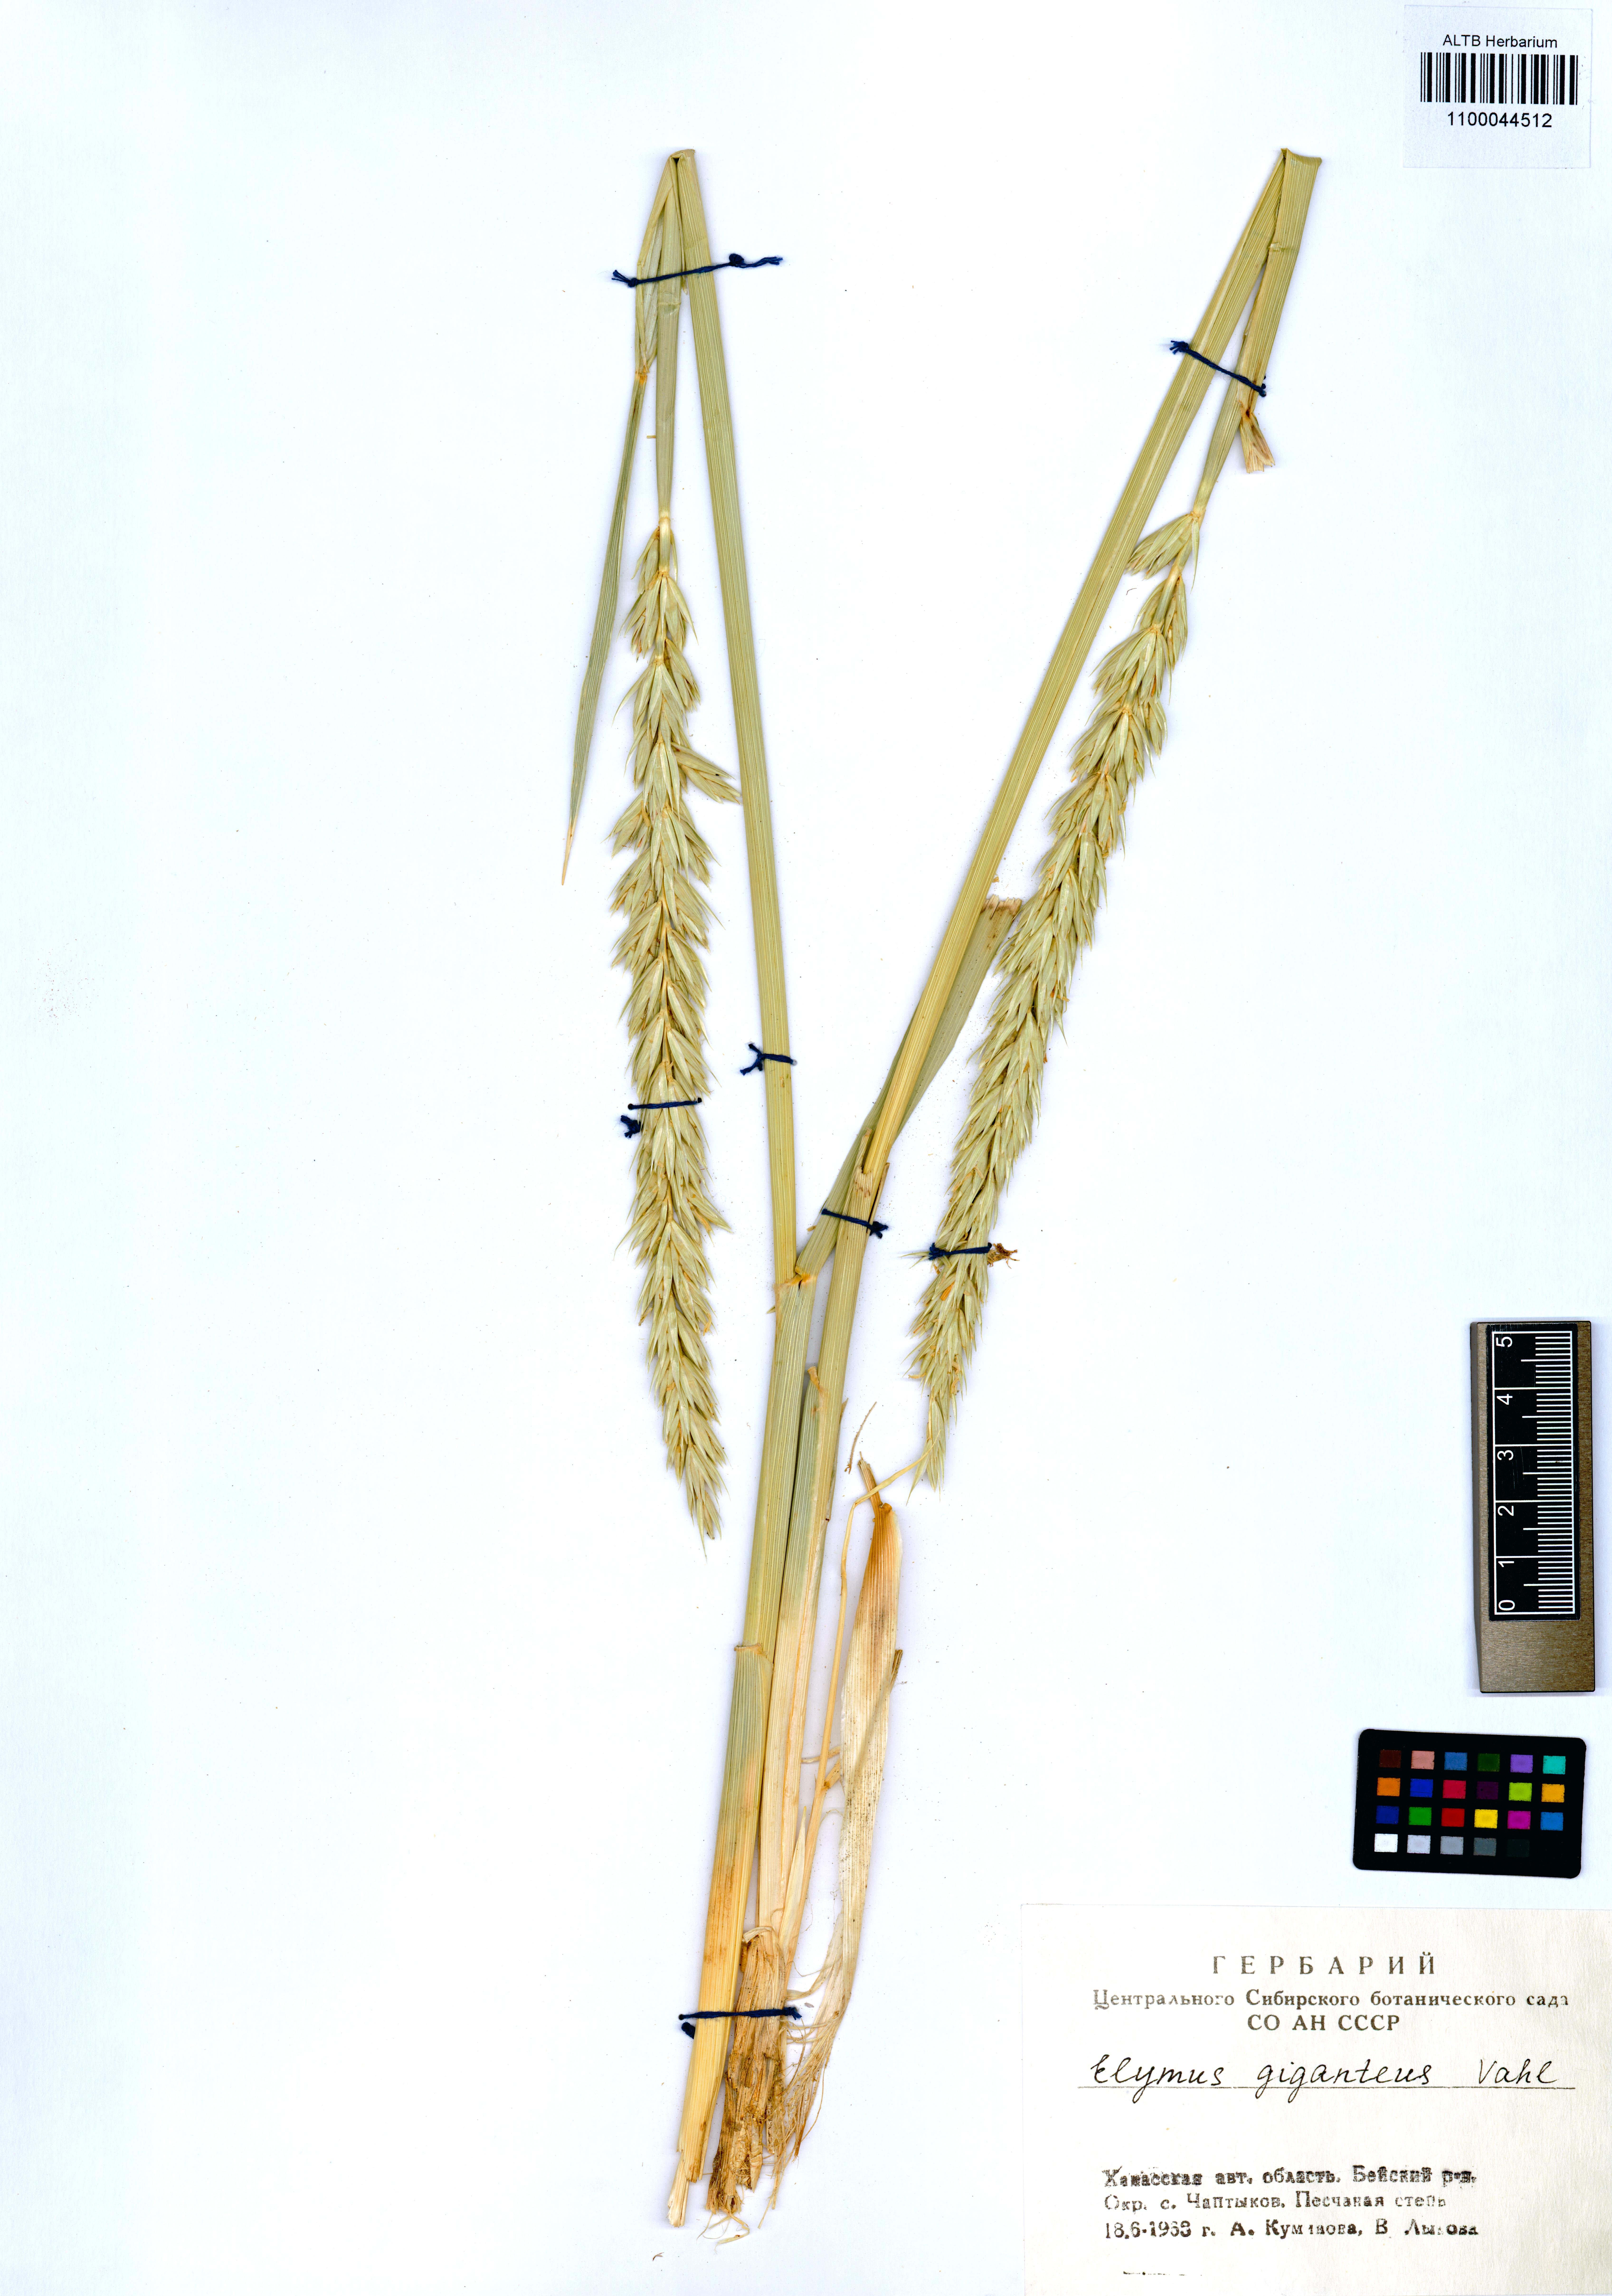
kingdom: Plantae
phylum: Tracheophyta
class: Liliopsida
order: Poales
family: Poaceae
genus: Leymus
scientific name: Leymus racemosus
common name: Mammoth wildrye
